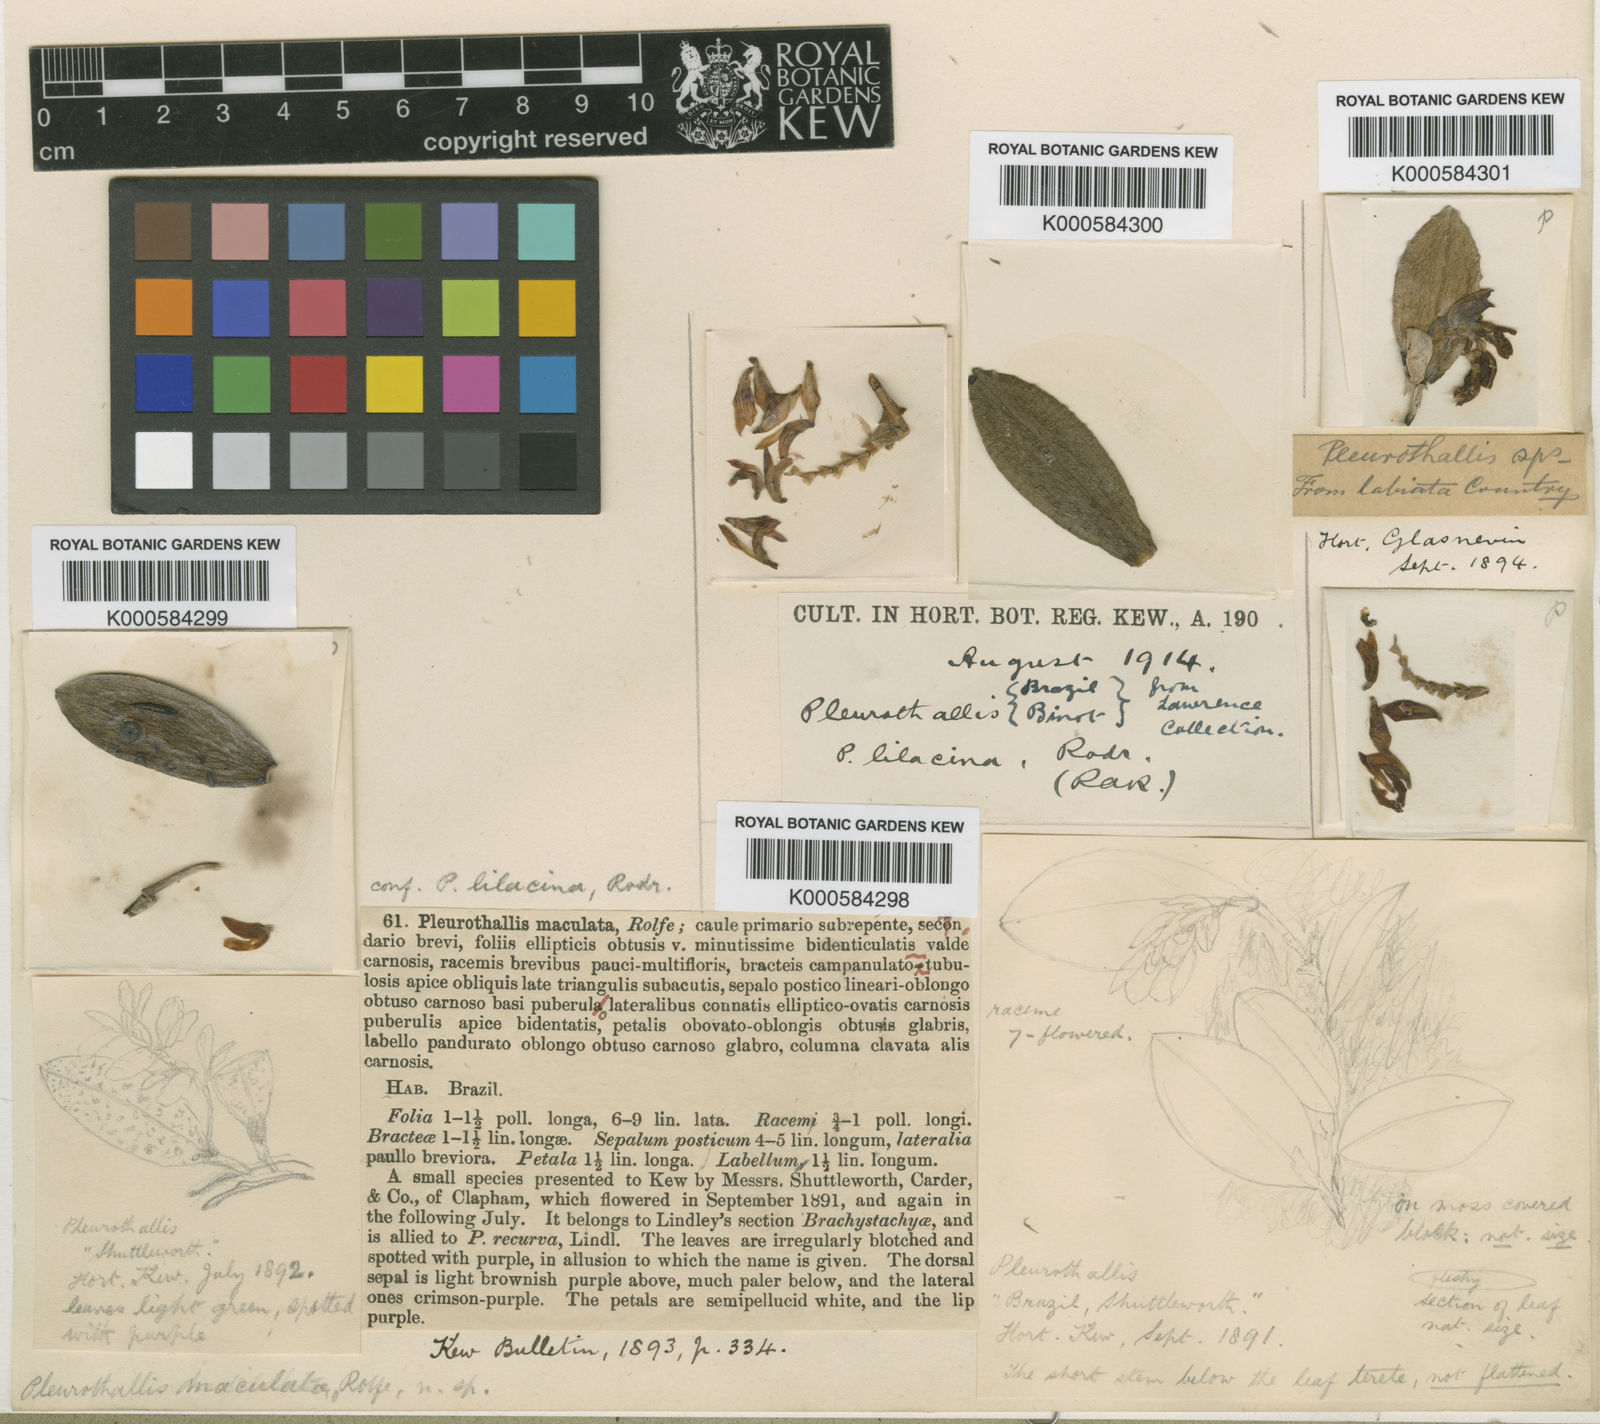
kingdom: Plantae
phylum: Tracheophyta
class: Liliopsida
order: Asparagales
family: Orchidaceae
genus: Acianthera
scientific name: Acianthera recurva
